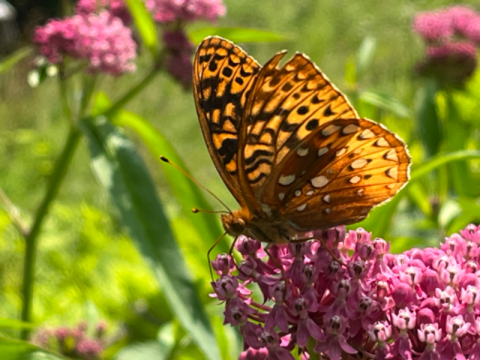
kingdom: Animalia
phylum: Arthropoda
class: Insecta
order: Lepidoptera
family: Nymphalidae
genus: Speyeria
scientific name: Speyeria cybele
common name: Great Spangled Fritillary
